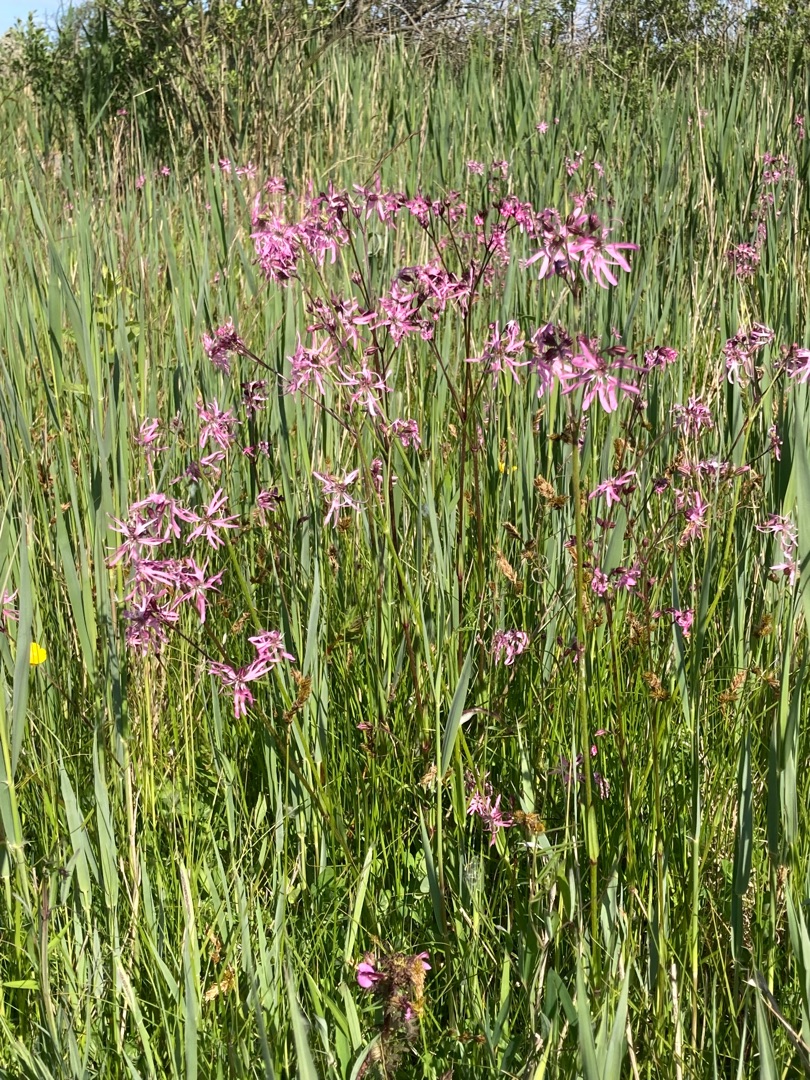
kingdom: Plantae
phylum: Tracheophyta
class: Magnoliopsida
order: Caryophyllales
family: Caryophyllaceae
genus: Silene
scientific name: Silene flos-cuculi
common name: Trævlekrone
